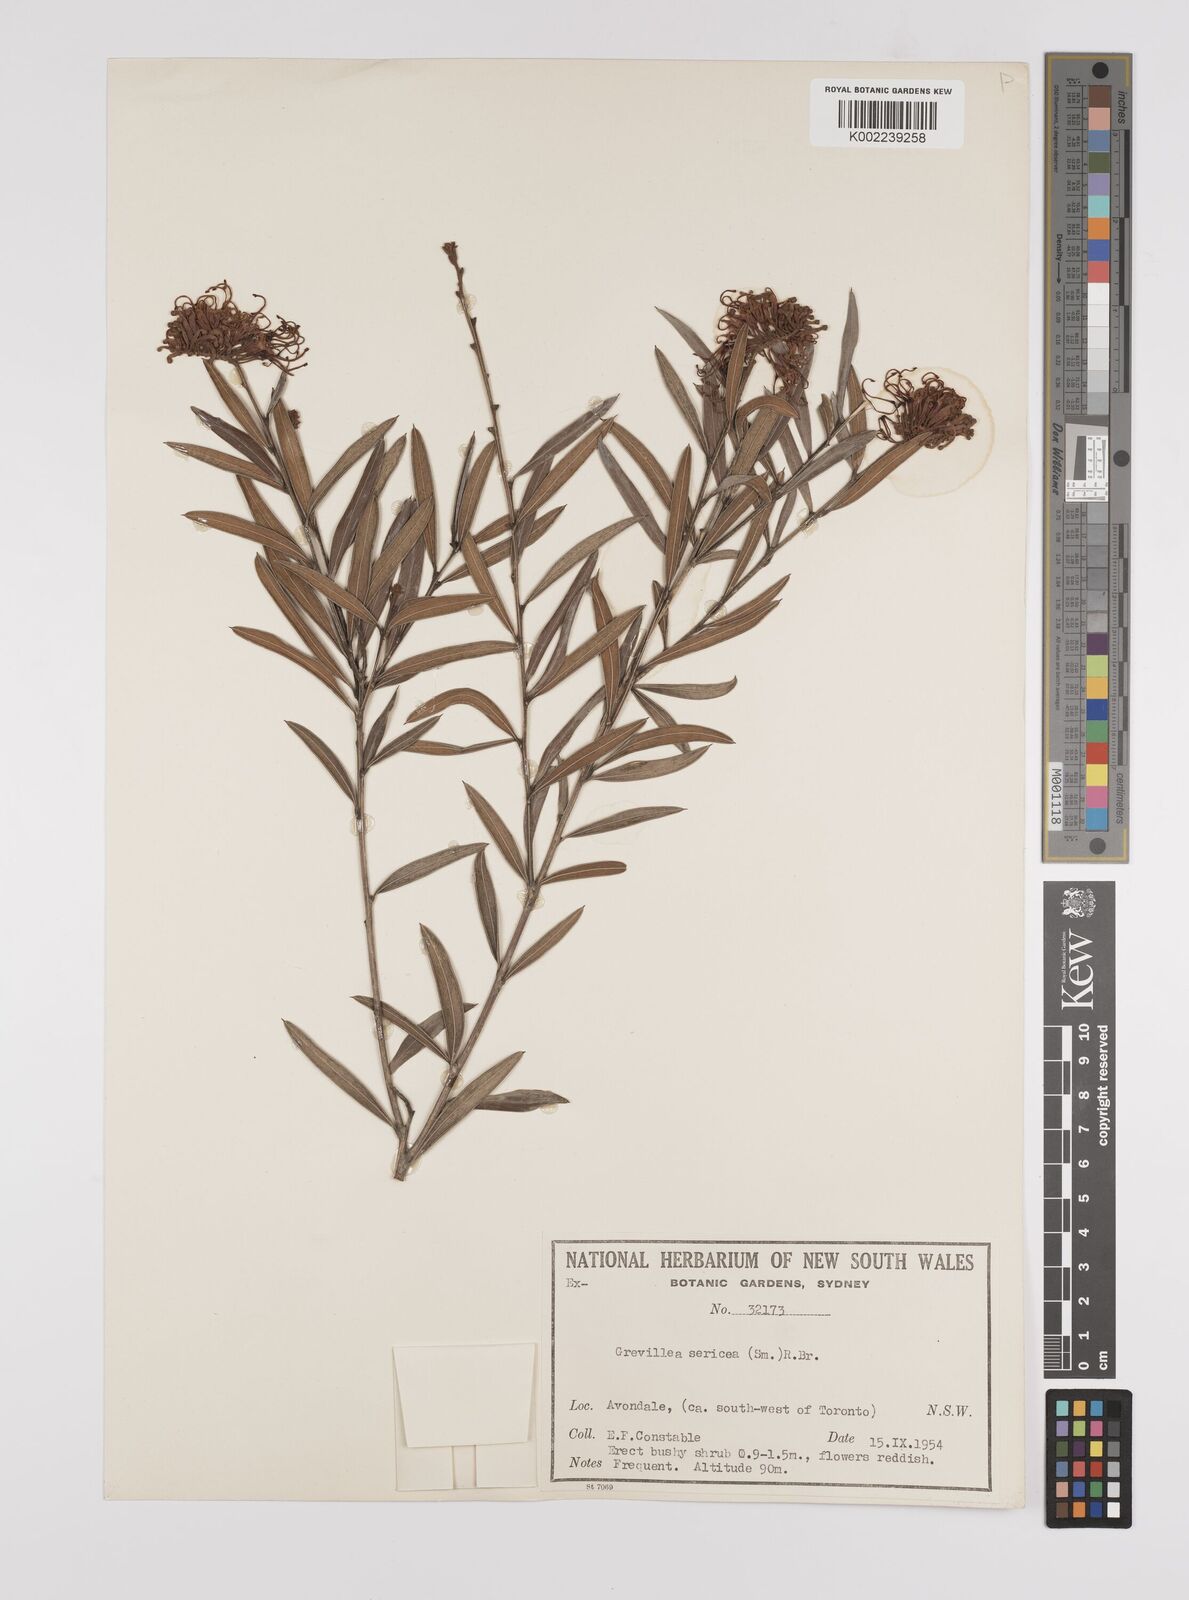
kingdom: Plantae
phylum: Tracheophyta
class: Magnoliopsida
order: Proteales
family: Proteaceae
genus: Grevillea
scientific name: Grevillea sericea
